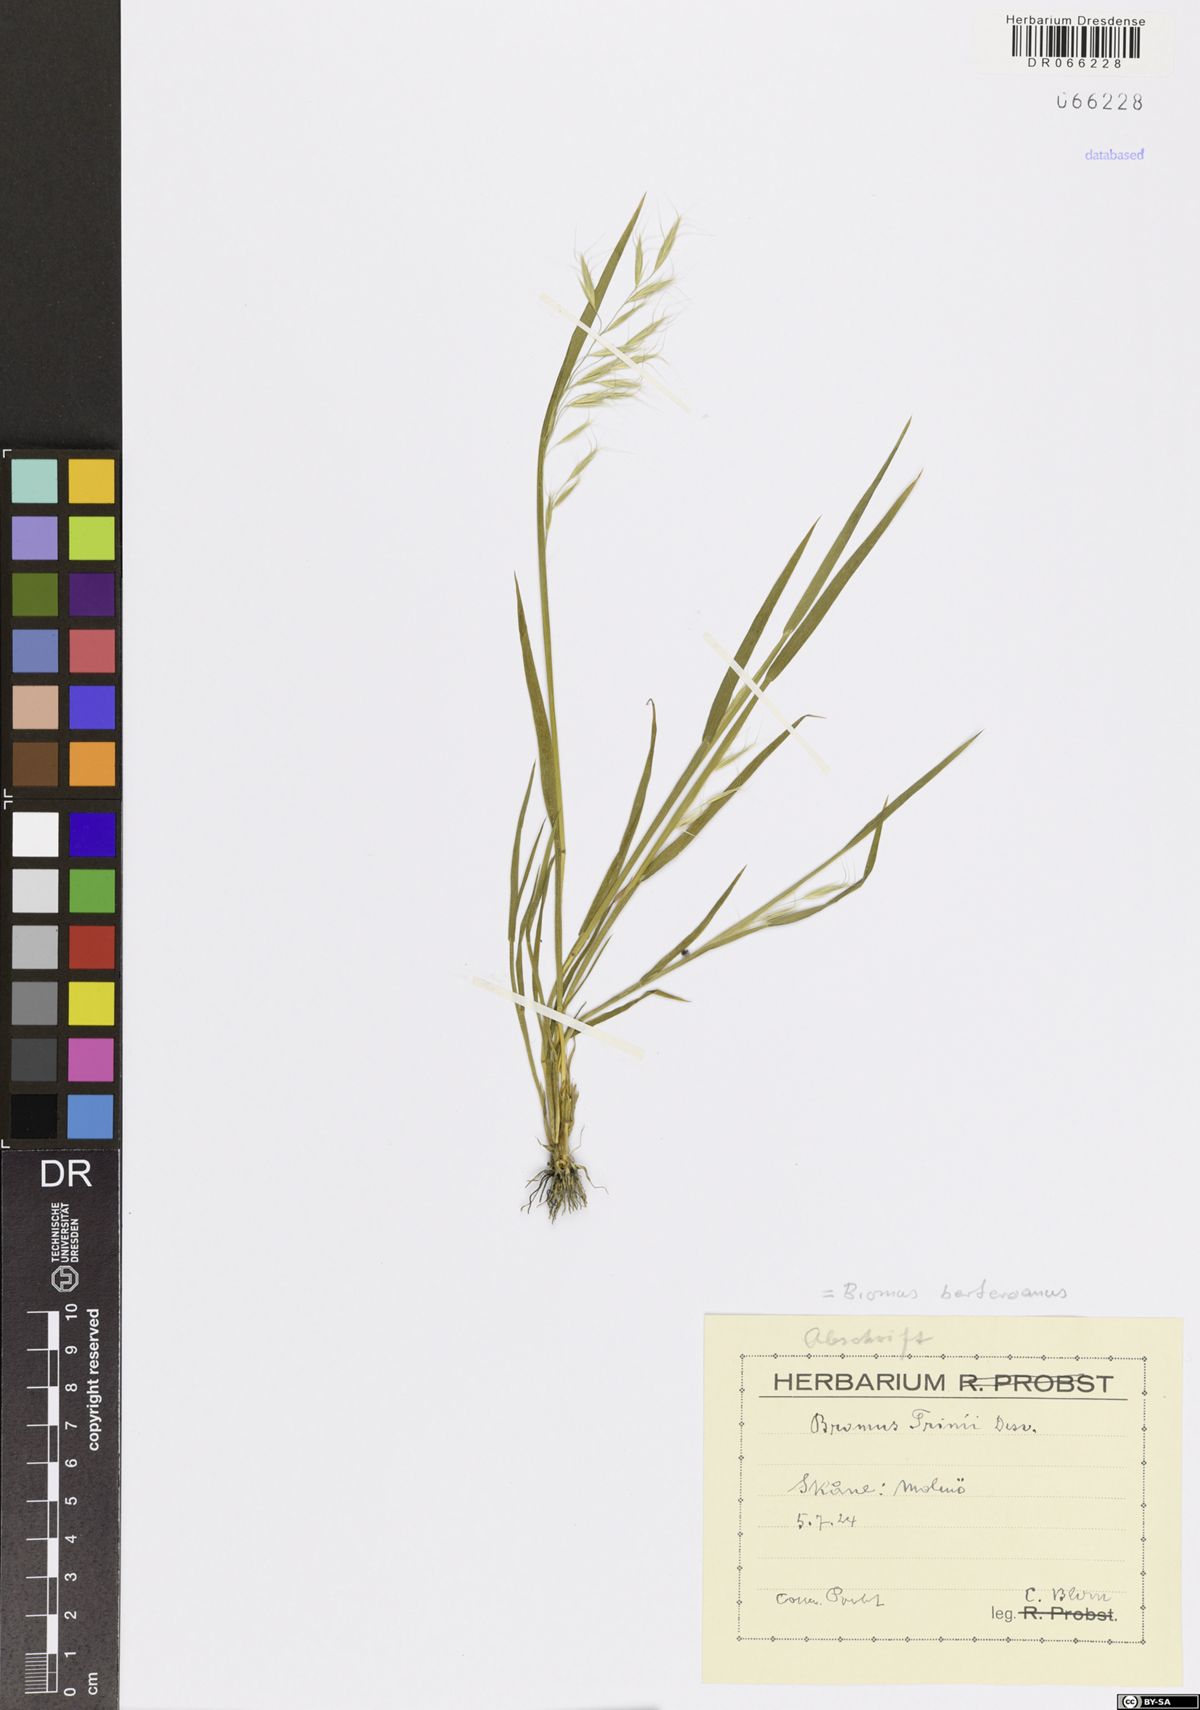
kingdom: Plantae
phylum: Tracheophyta
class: Liliopsida
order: Poales
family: Poaceae
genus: Bromus
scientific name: Bromus berteroanus
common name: Chilean chess
